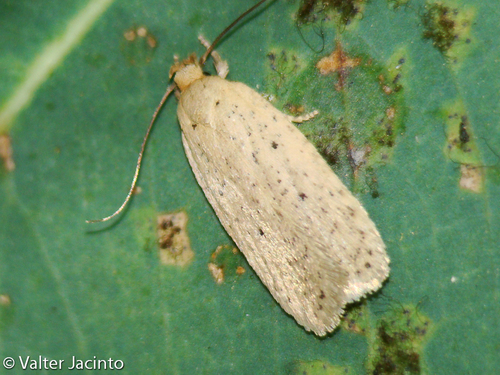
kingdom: Animalia
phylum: Arthropoda
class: Insecta
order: Lepidoptera
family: Depressariidae
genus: Agonopterix
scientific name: Agonopterix rotundella
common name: Rolling carrot flat-body
